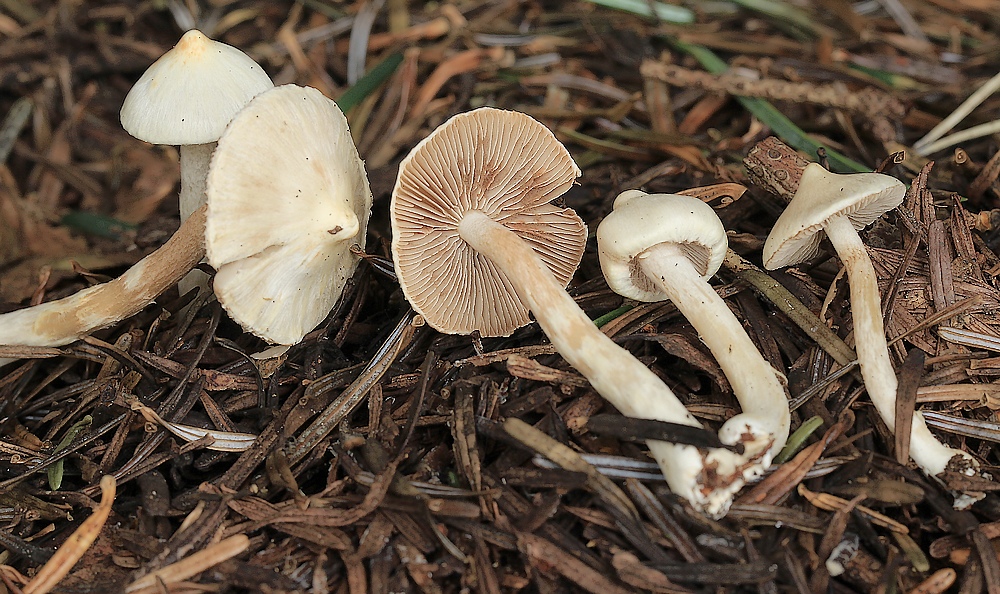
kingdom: Fungi
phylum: Basidiomycota
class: Agaricomycetes
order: Agaricales
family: Inocybaceae
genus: Inocybe
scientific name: Inocybe
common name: almindelig trævlhat
